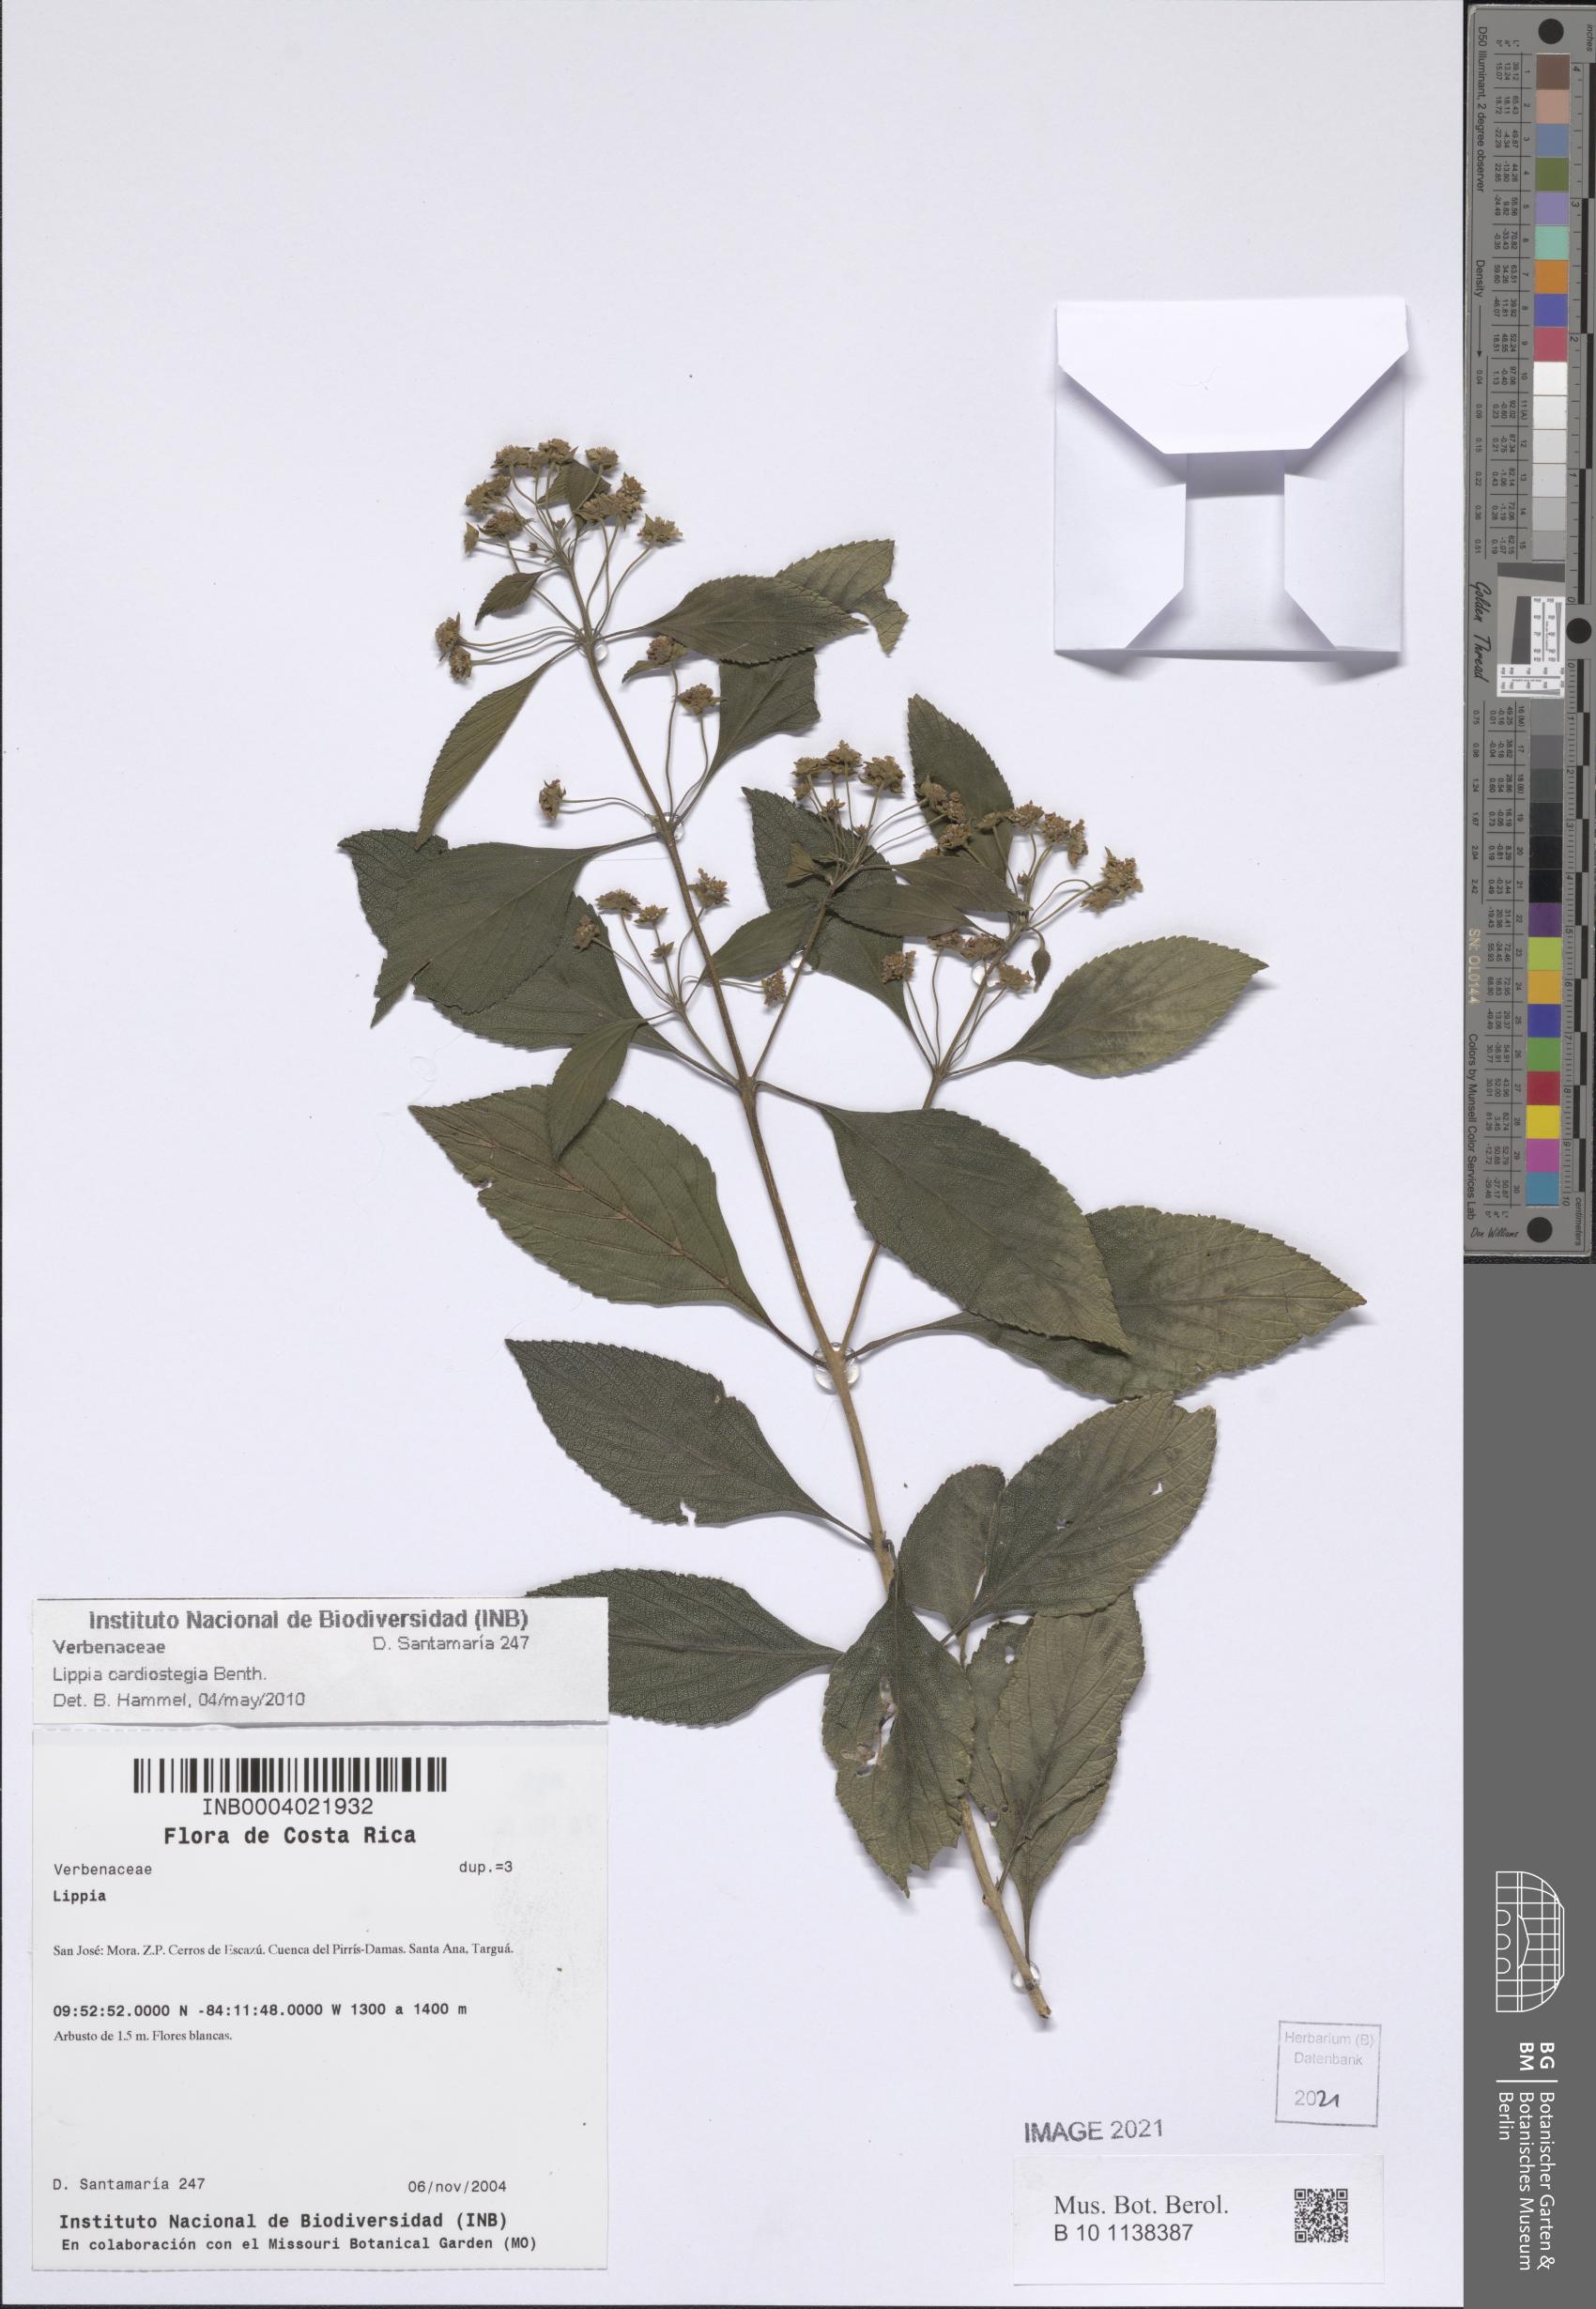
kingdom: Plantae
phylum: Tracheophyta
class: Magnoliopsida
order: Lamiales
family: Verbenaceae
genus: Lippia
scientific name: Lippia cardiostegia
